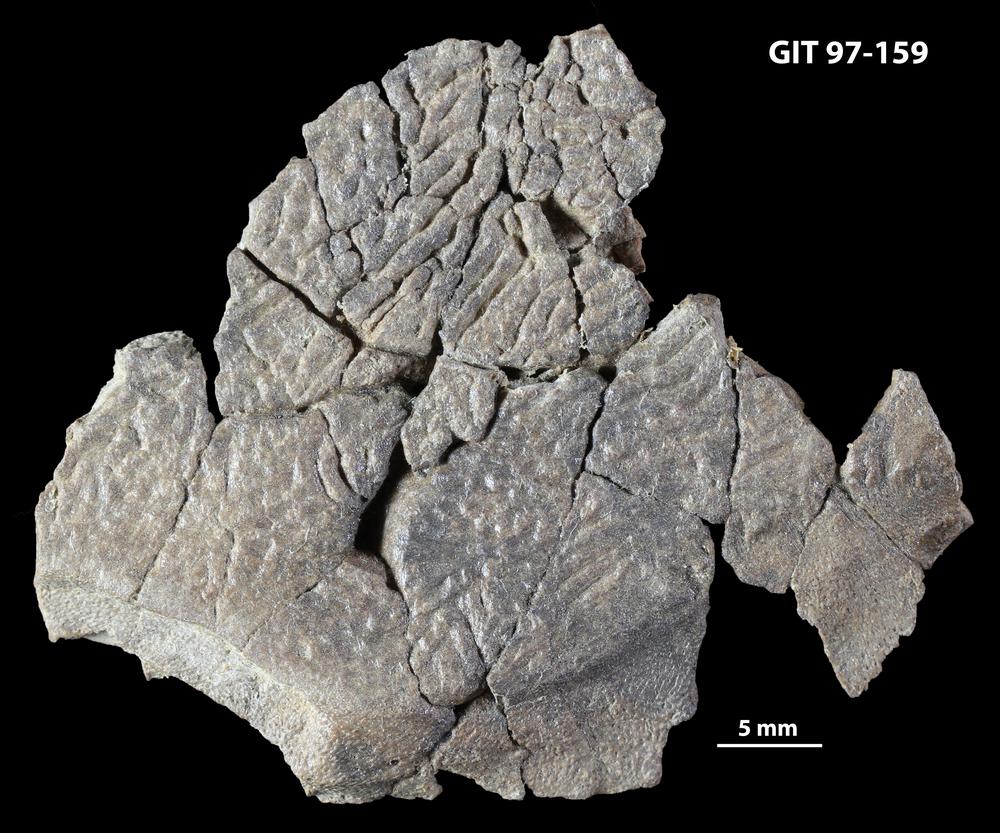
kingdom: Animalia
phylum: Chordata
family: Holonematidae
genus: Holonema
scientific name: Holonema
